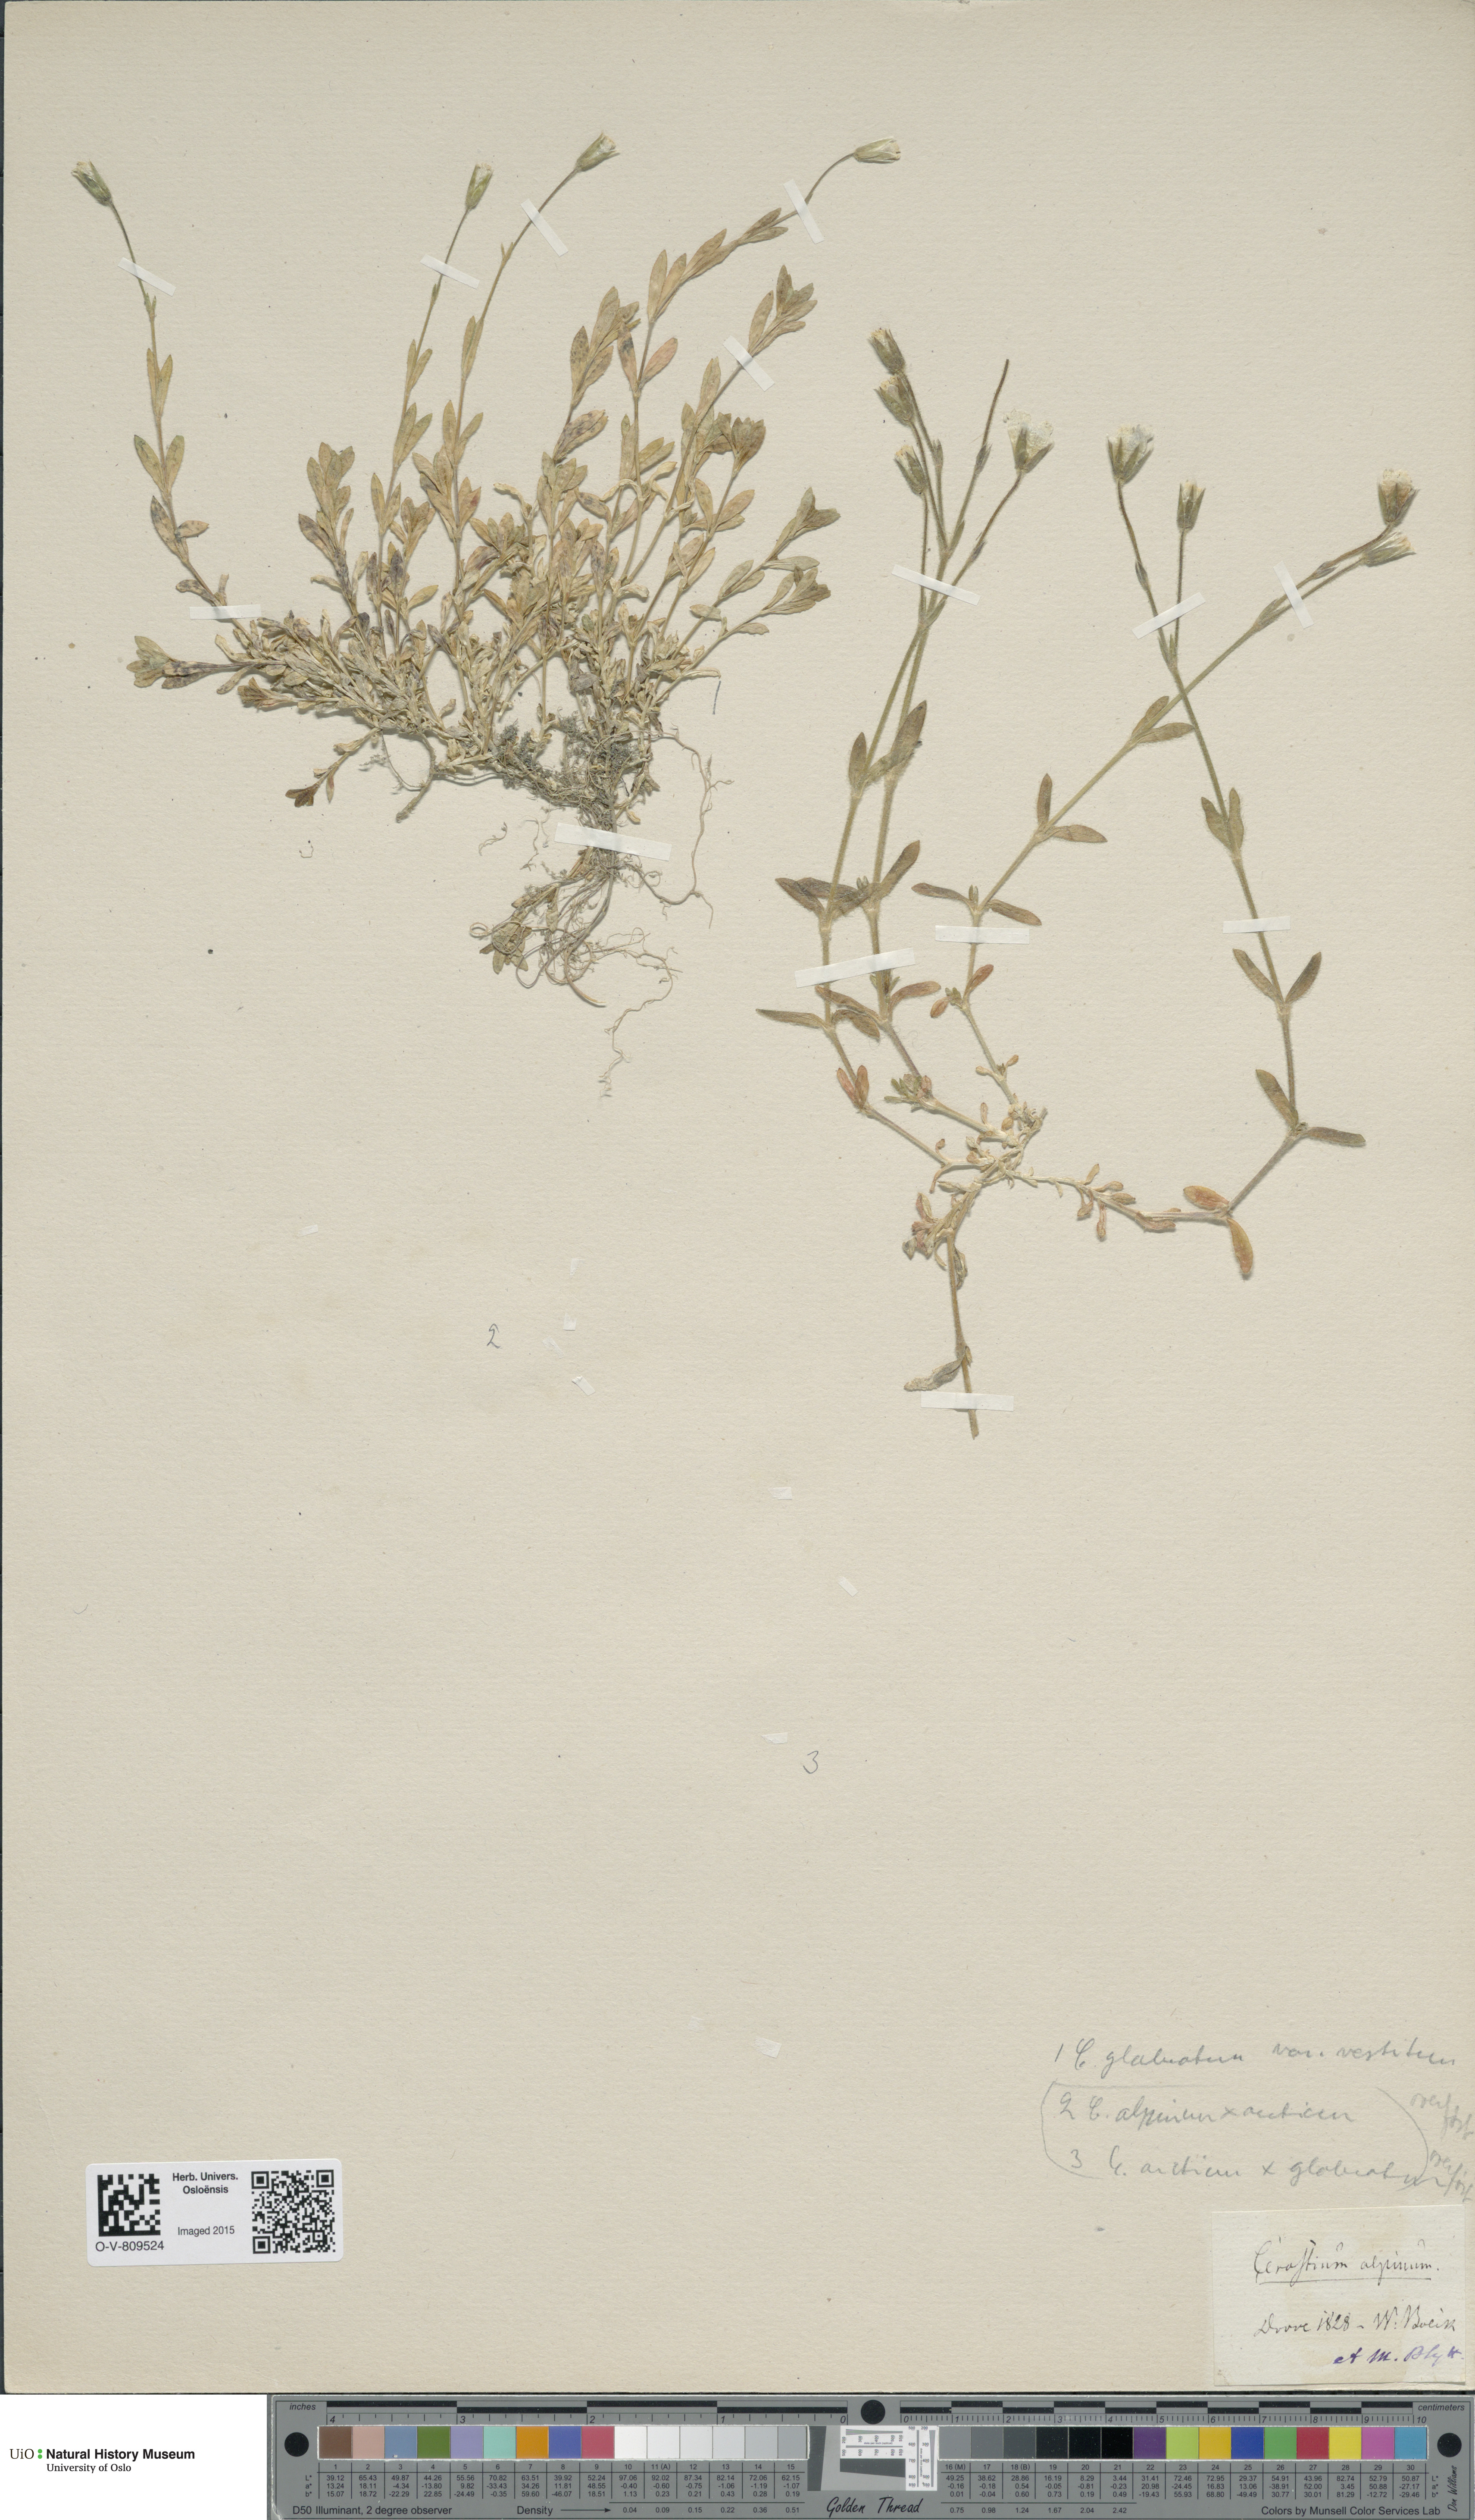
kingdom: Plantae
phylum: Tracheophyta
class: Magnoliopsida
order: Caryophyllales
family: Caryophyllaceae
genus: Cerastium
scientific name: Cerastium alpinum
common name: Alpine mouse-ear
